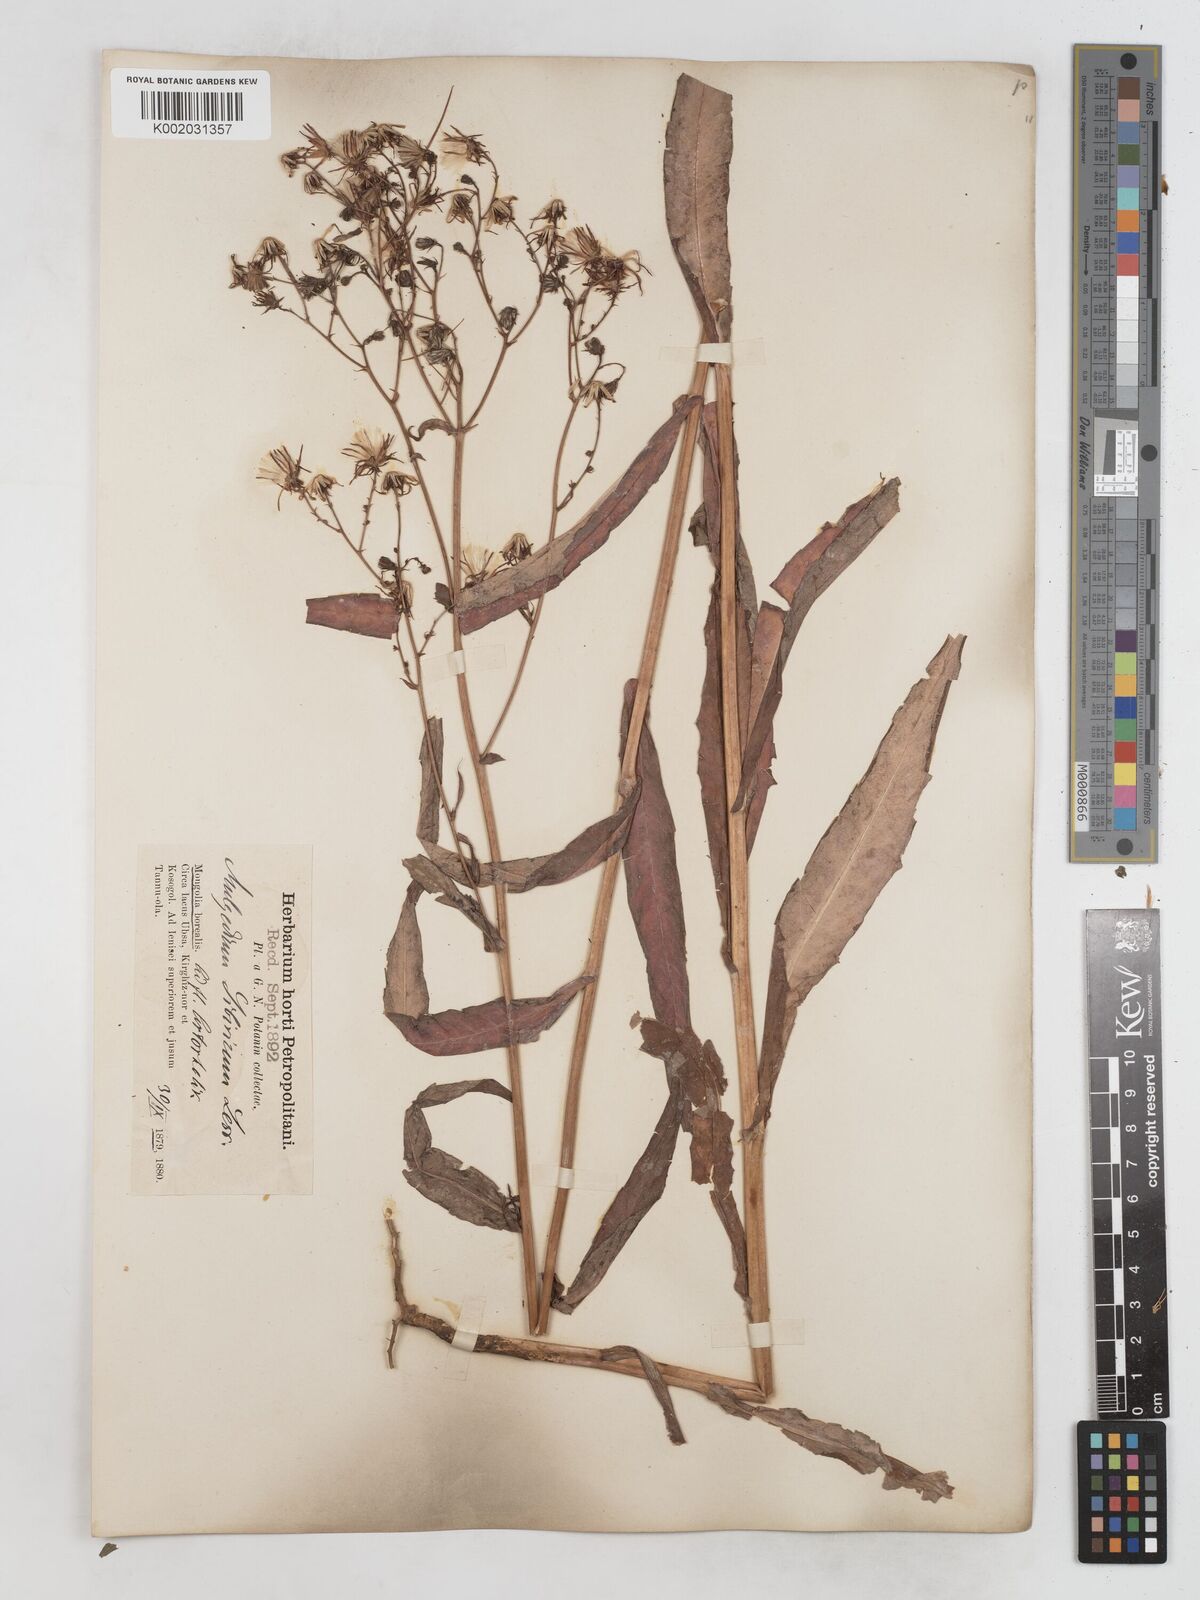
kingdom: Plantae
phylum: Tracheophyta
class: Magnoliopsida
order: Asterales
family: Asteraceae
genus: Lactuca
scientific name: Lactuca sibirica
